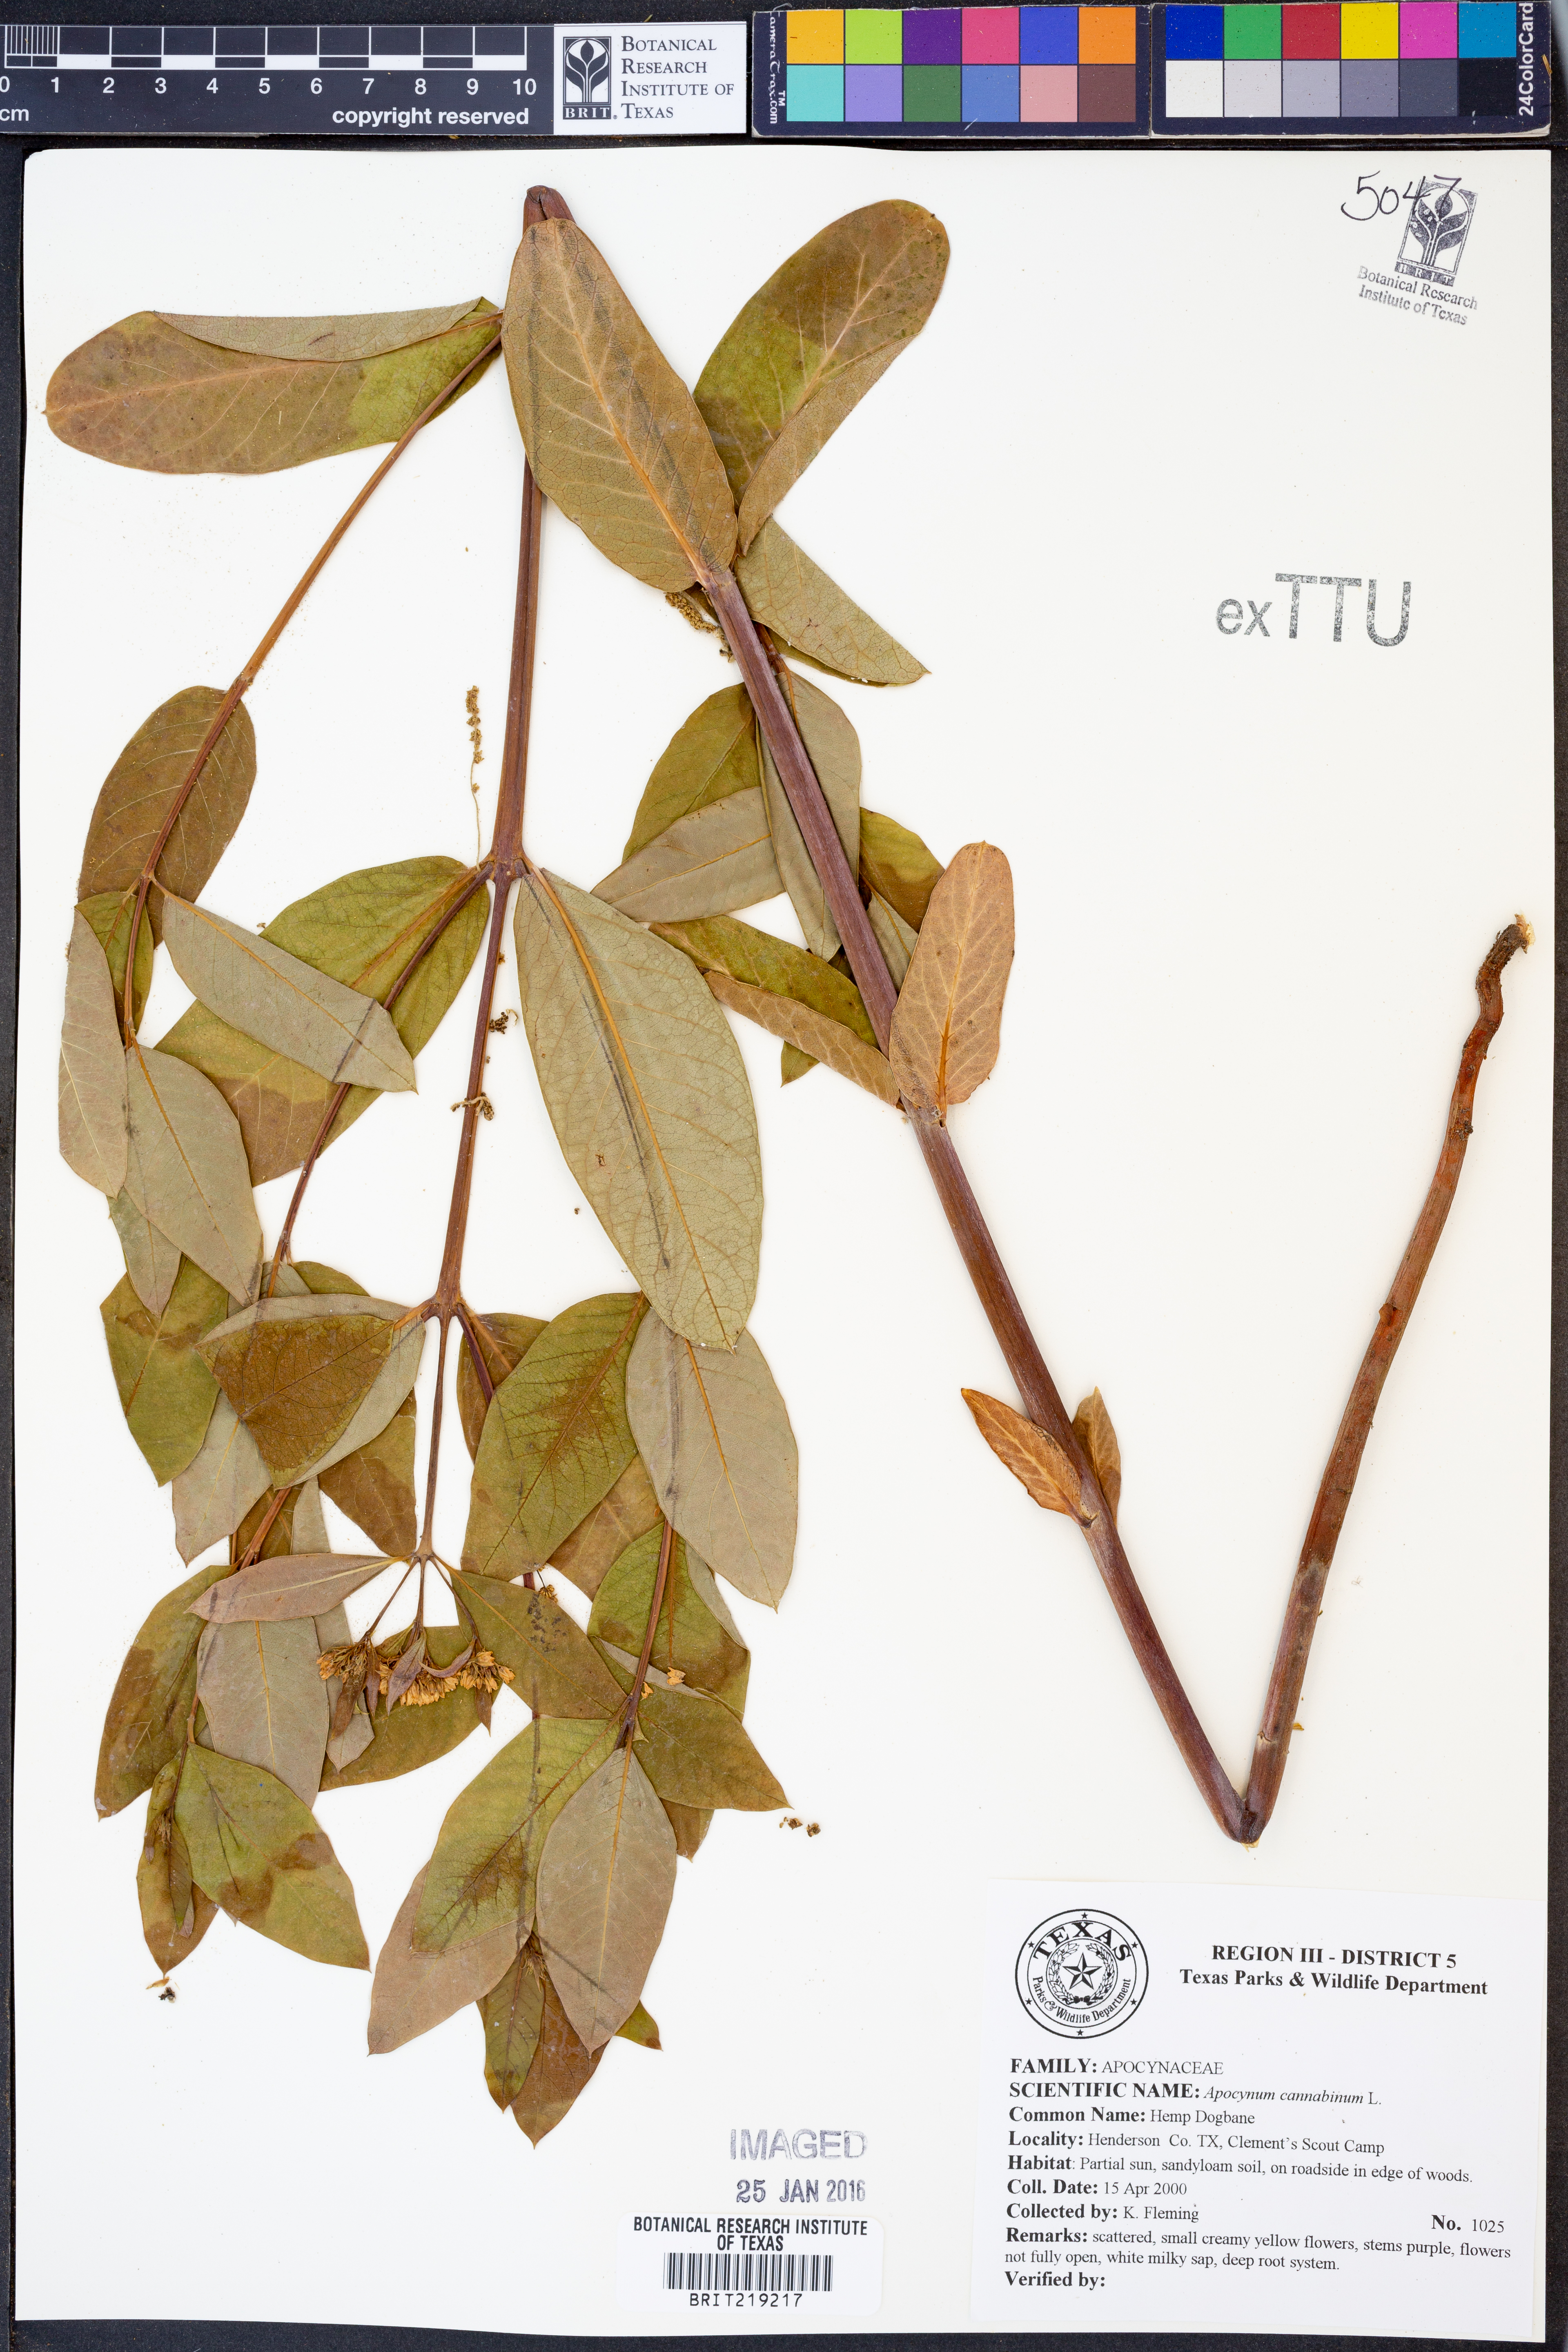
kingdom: Plantae
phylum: Tracheophyta
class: Magnoliopsida
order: Gentianales
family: Apocynaceae
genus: Apocynum
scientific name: Apocynum cannabinum
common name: Hemp dogbane
